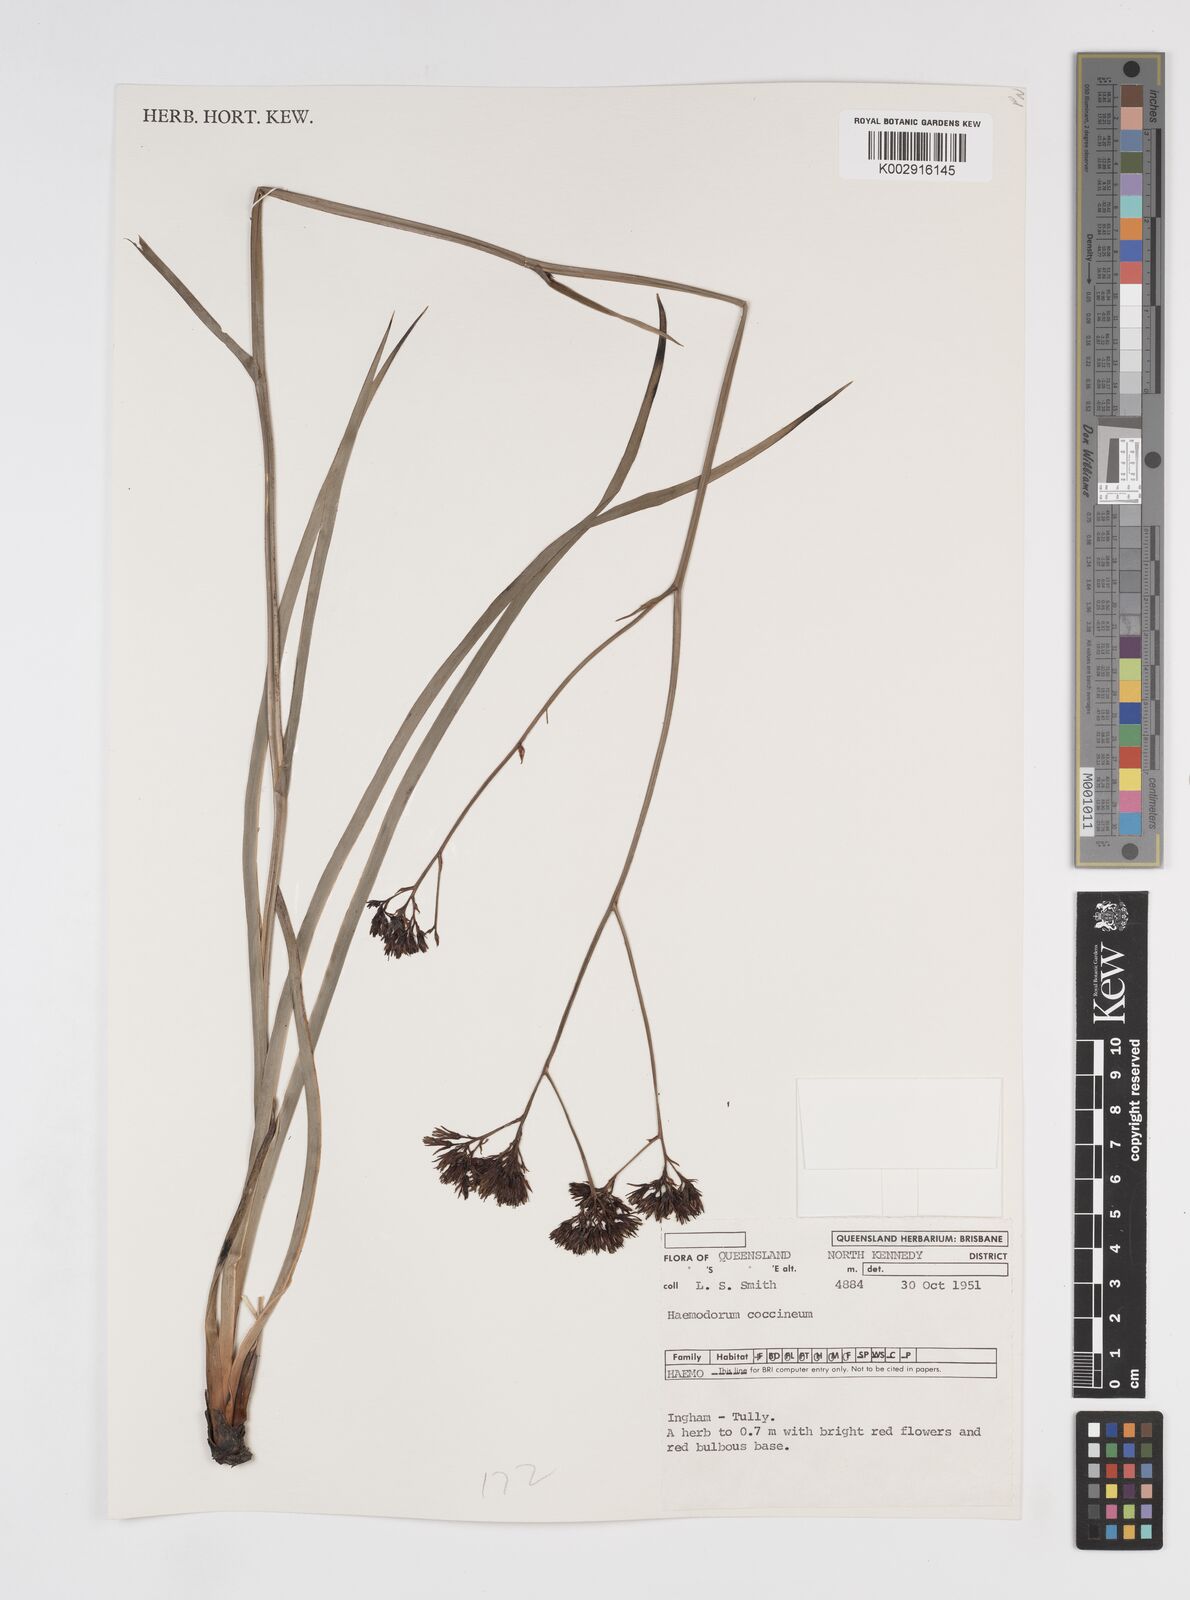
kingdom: Plantae
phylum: Tracheophyta
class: Liliopsida
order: Commelinales
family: Haemodoraceae
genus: Haemodorum
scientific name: Haemodorum coccineum
